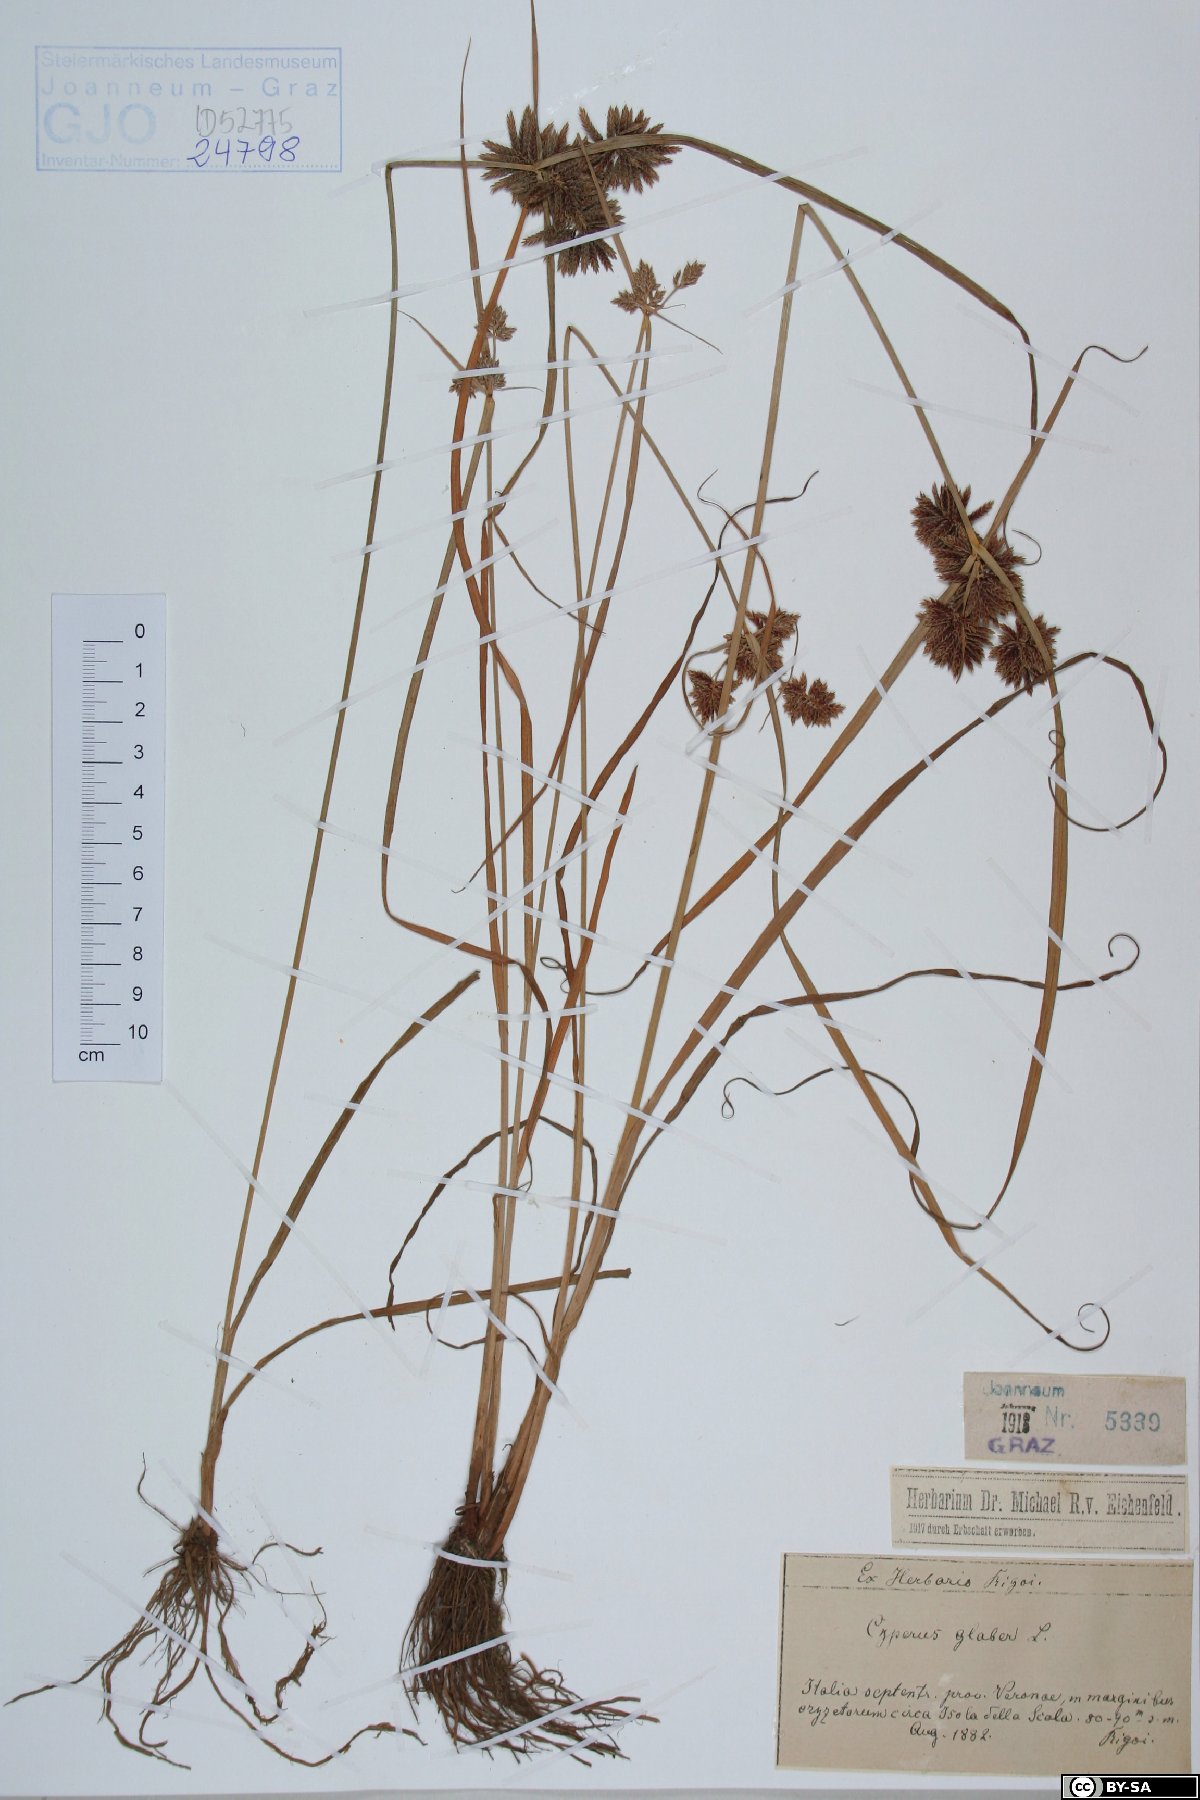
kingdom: Plantae
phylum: Tracheophyta
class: Liliopsida
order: Poales
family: Cyperaceae
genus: Cyperus
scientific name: Cyperus glaber
